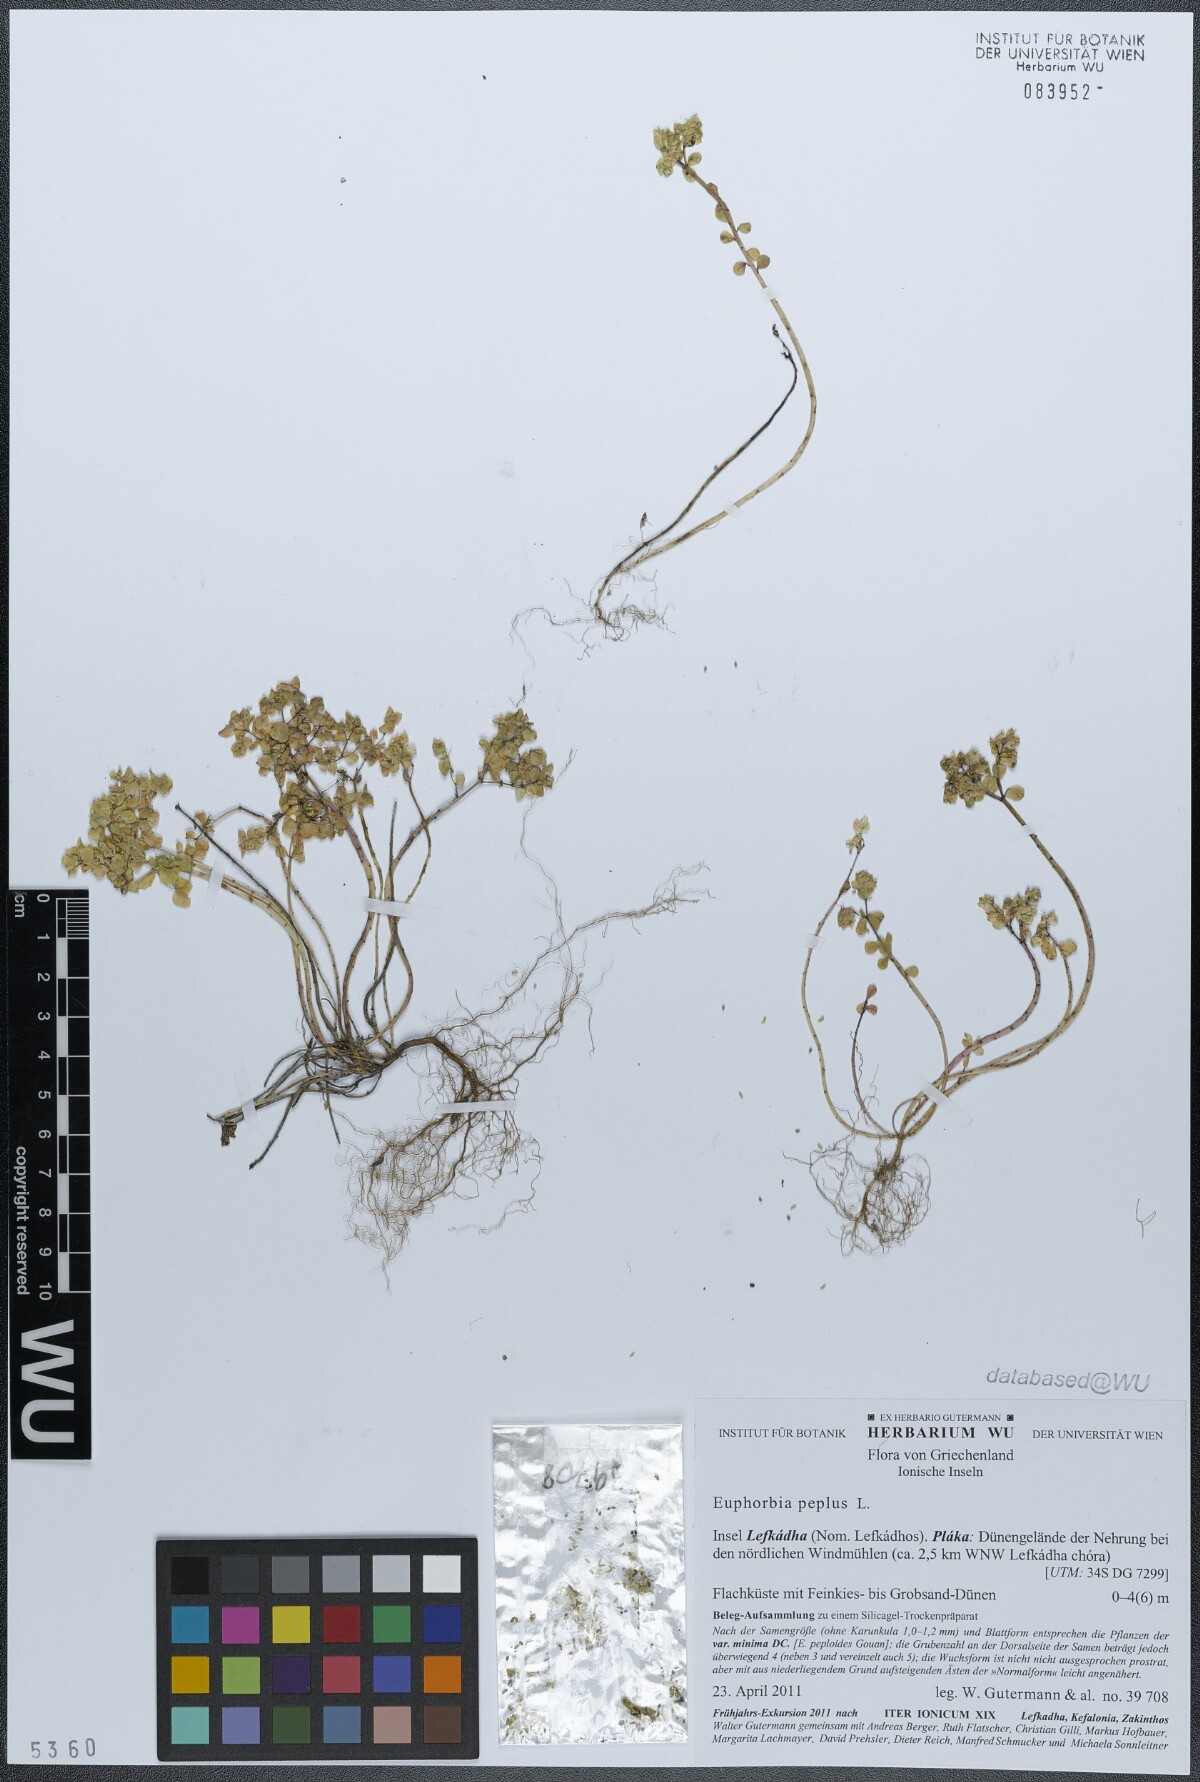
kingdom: Plantae
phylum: Tracheophyta
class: Magnoliopsida
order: Malpighiales
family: Euphorbiaceae
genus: Euphorbia
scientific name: Euphorbia peplus
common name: Petty spurge
